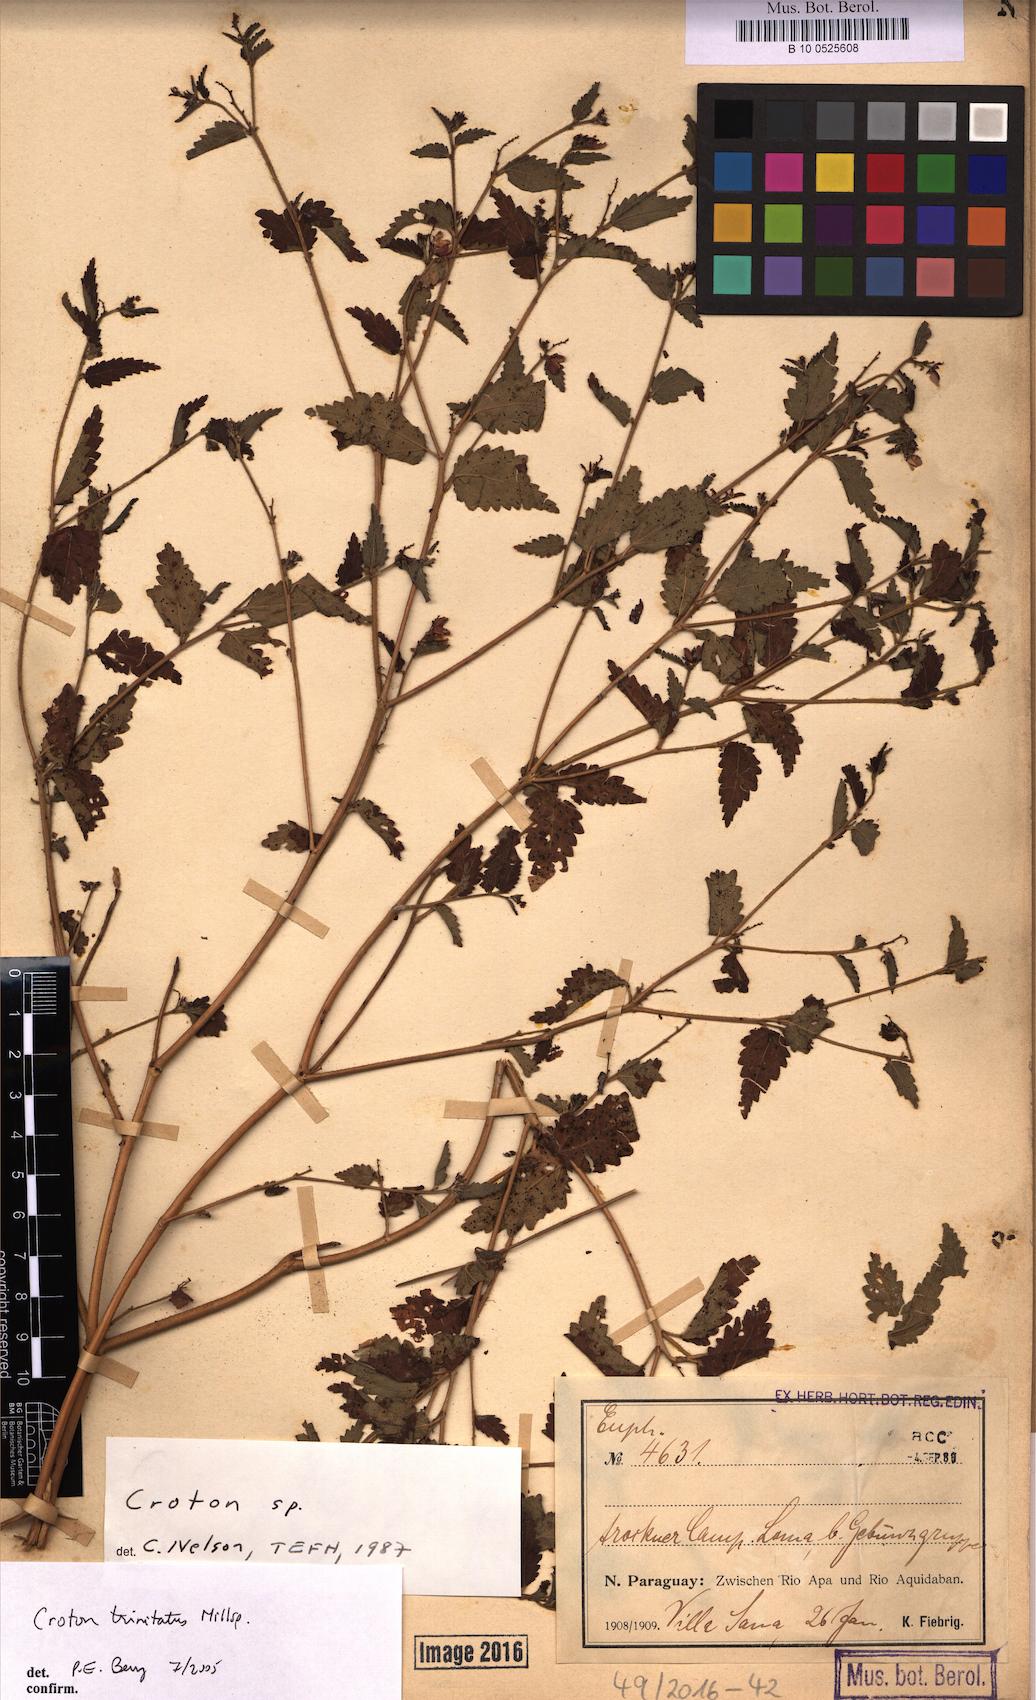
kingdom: Plantae
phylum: Tracheophyta
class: Magnoliopsida
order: Malpighiales
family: Euphorbiaceae
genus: Croton
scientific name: Croton trinitatis
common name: Roadside croton
